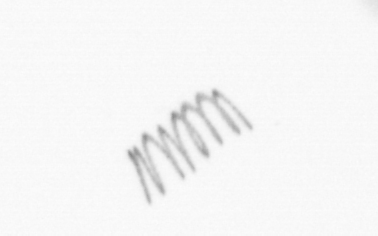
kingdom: Chromista
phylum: Ochrophyta
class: Bacillariophyceae
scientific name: Bacillariophyceae
